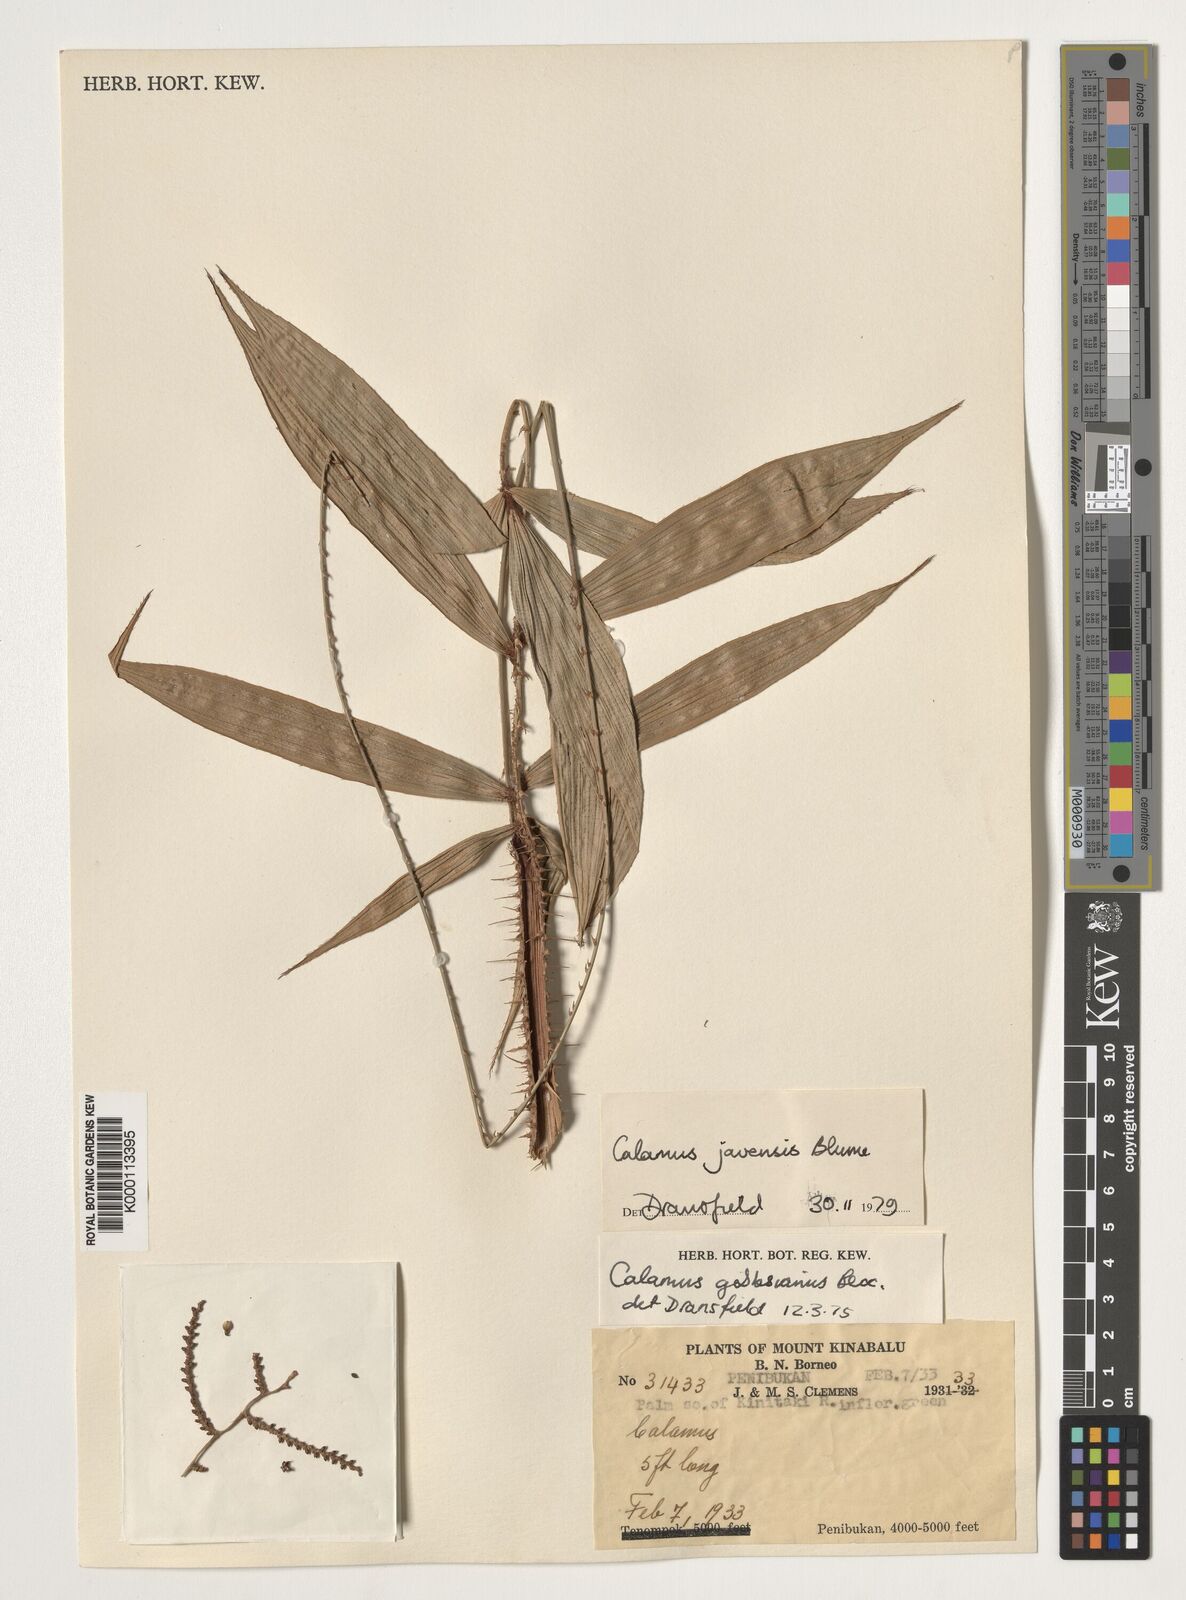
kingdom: Plantae
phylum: Tracheophyta
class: Liliopsida
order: Arecales
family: Arecaceae
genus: Calamus
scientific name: Calamus javensis
